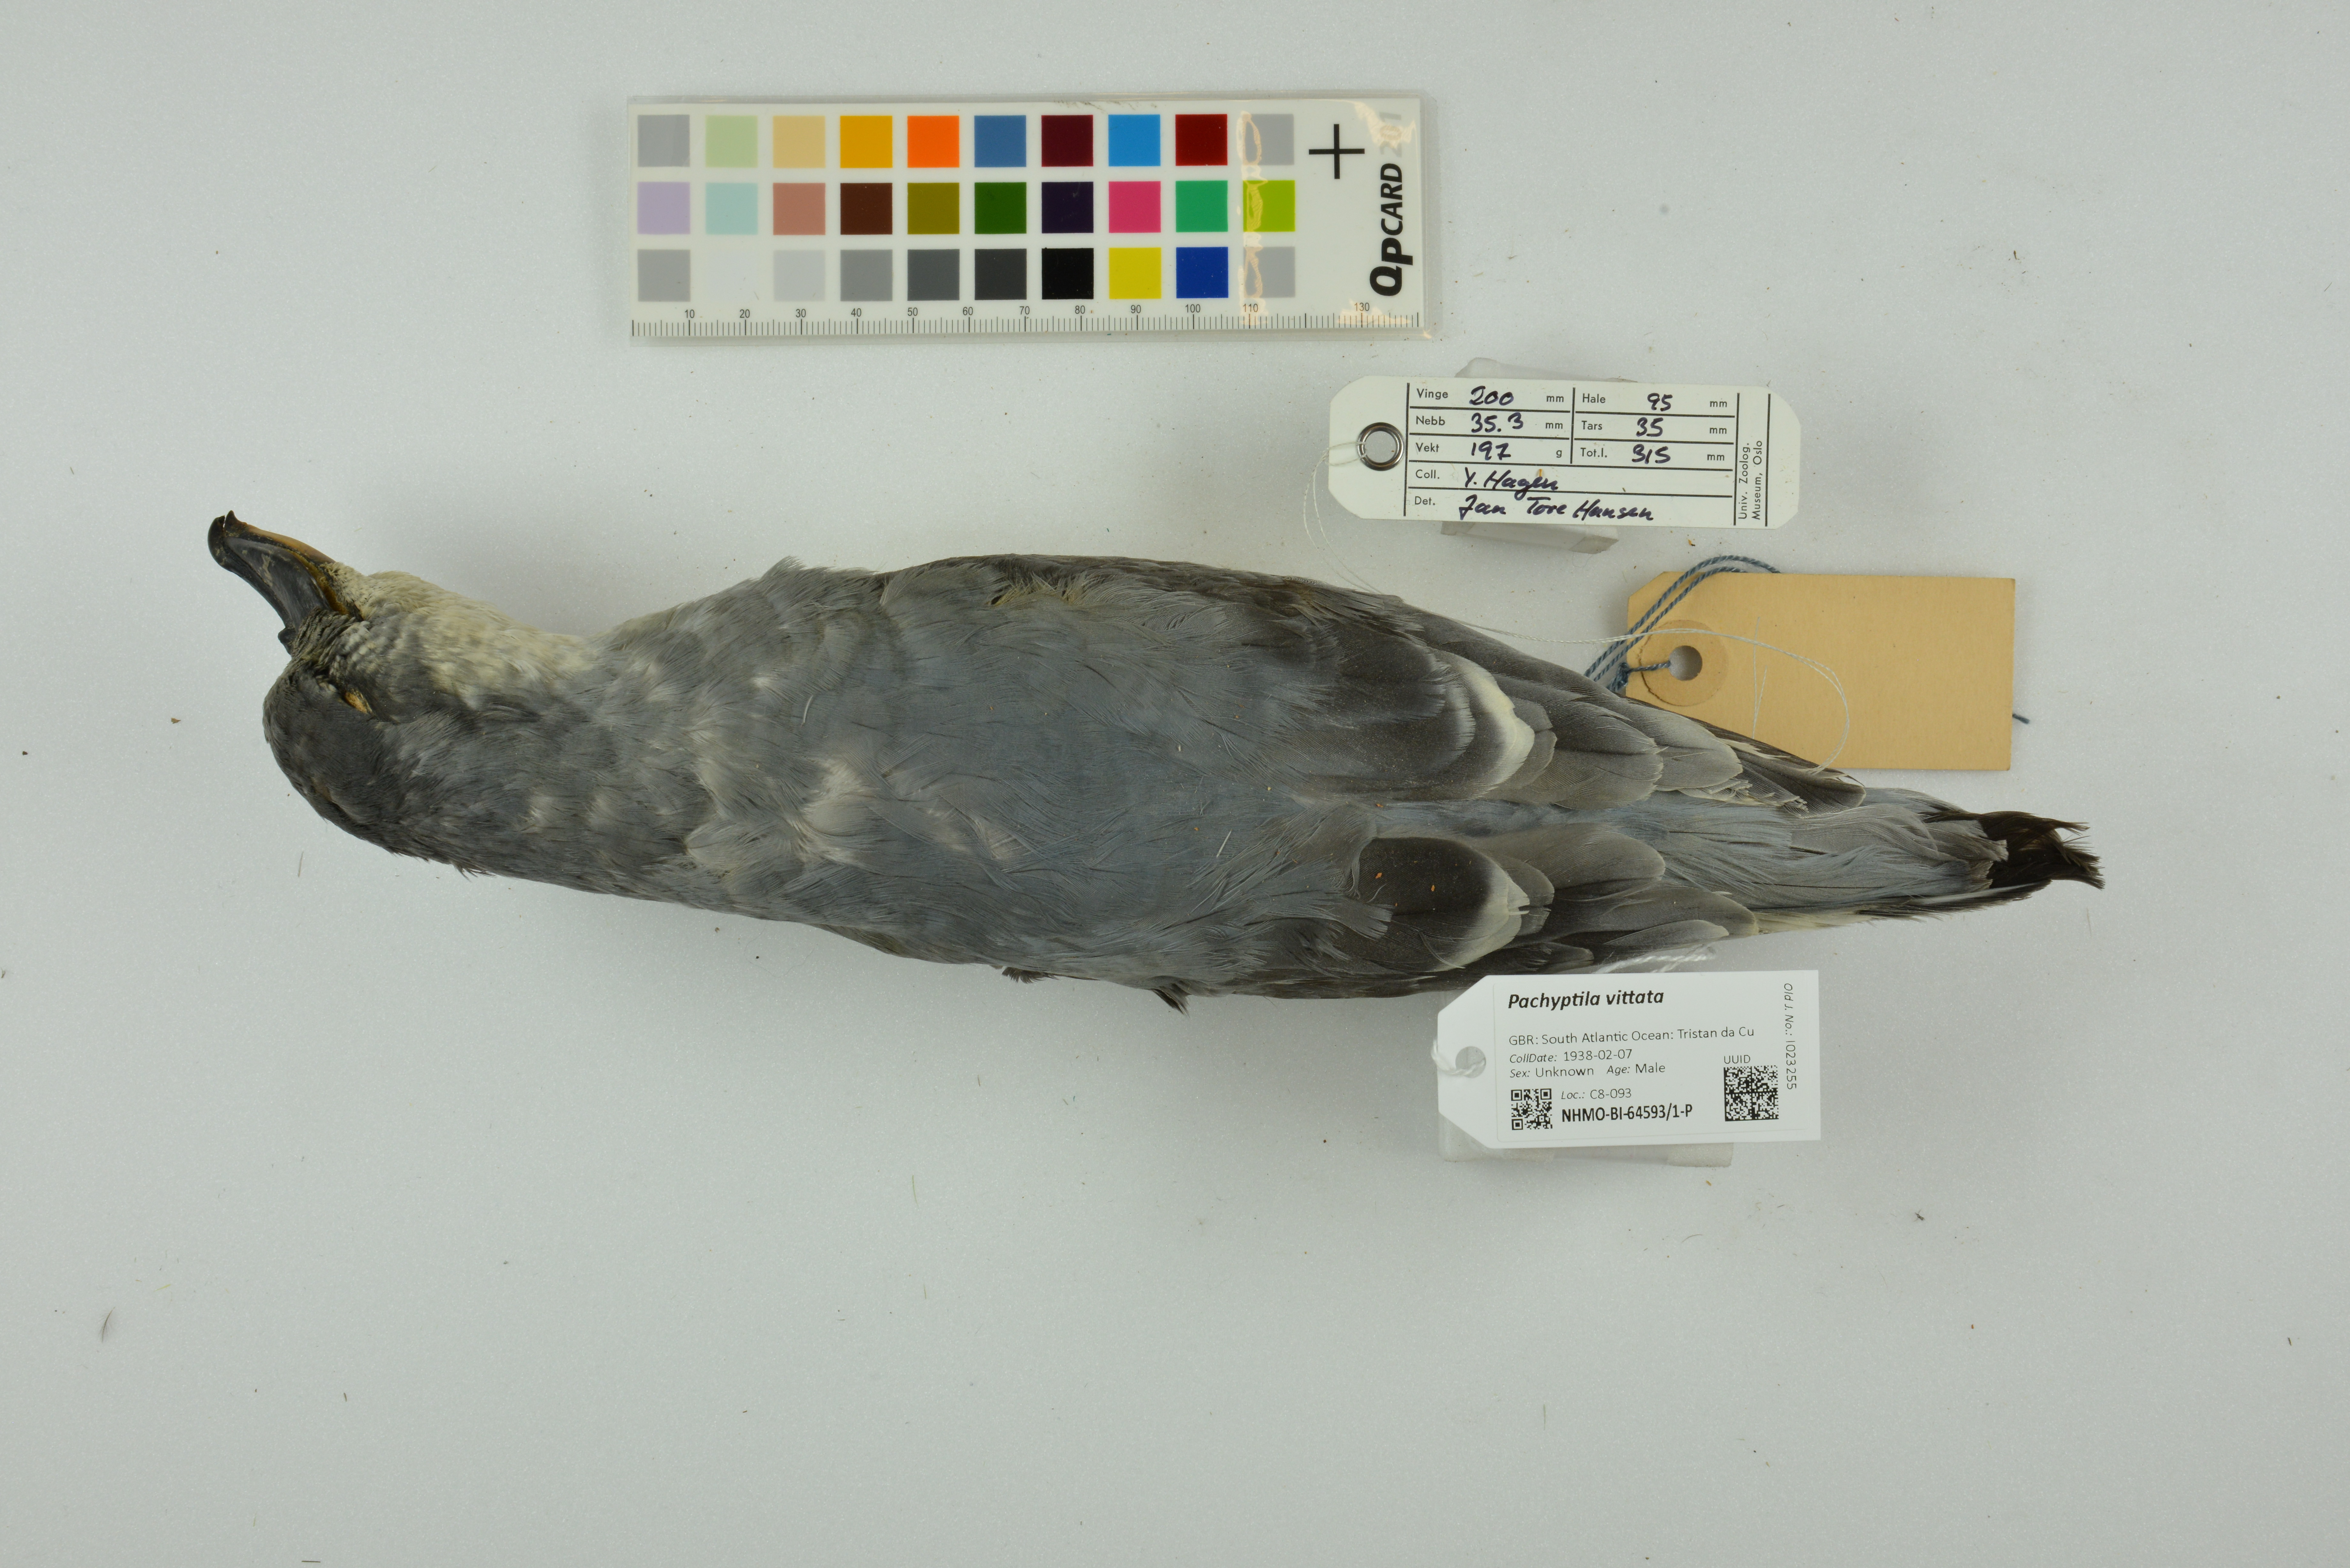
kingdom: Animalia
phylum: Chordata
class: Aves
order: Procellariiformes
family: Procellariidae
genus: Pachyptila
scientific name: Pachyptila vittata
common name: Broad-billed prion
